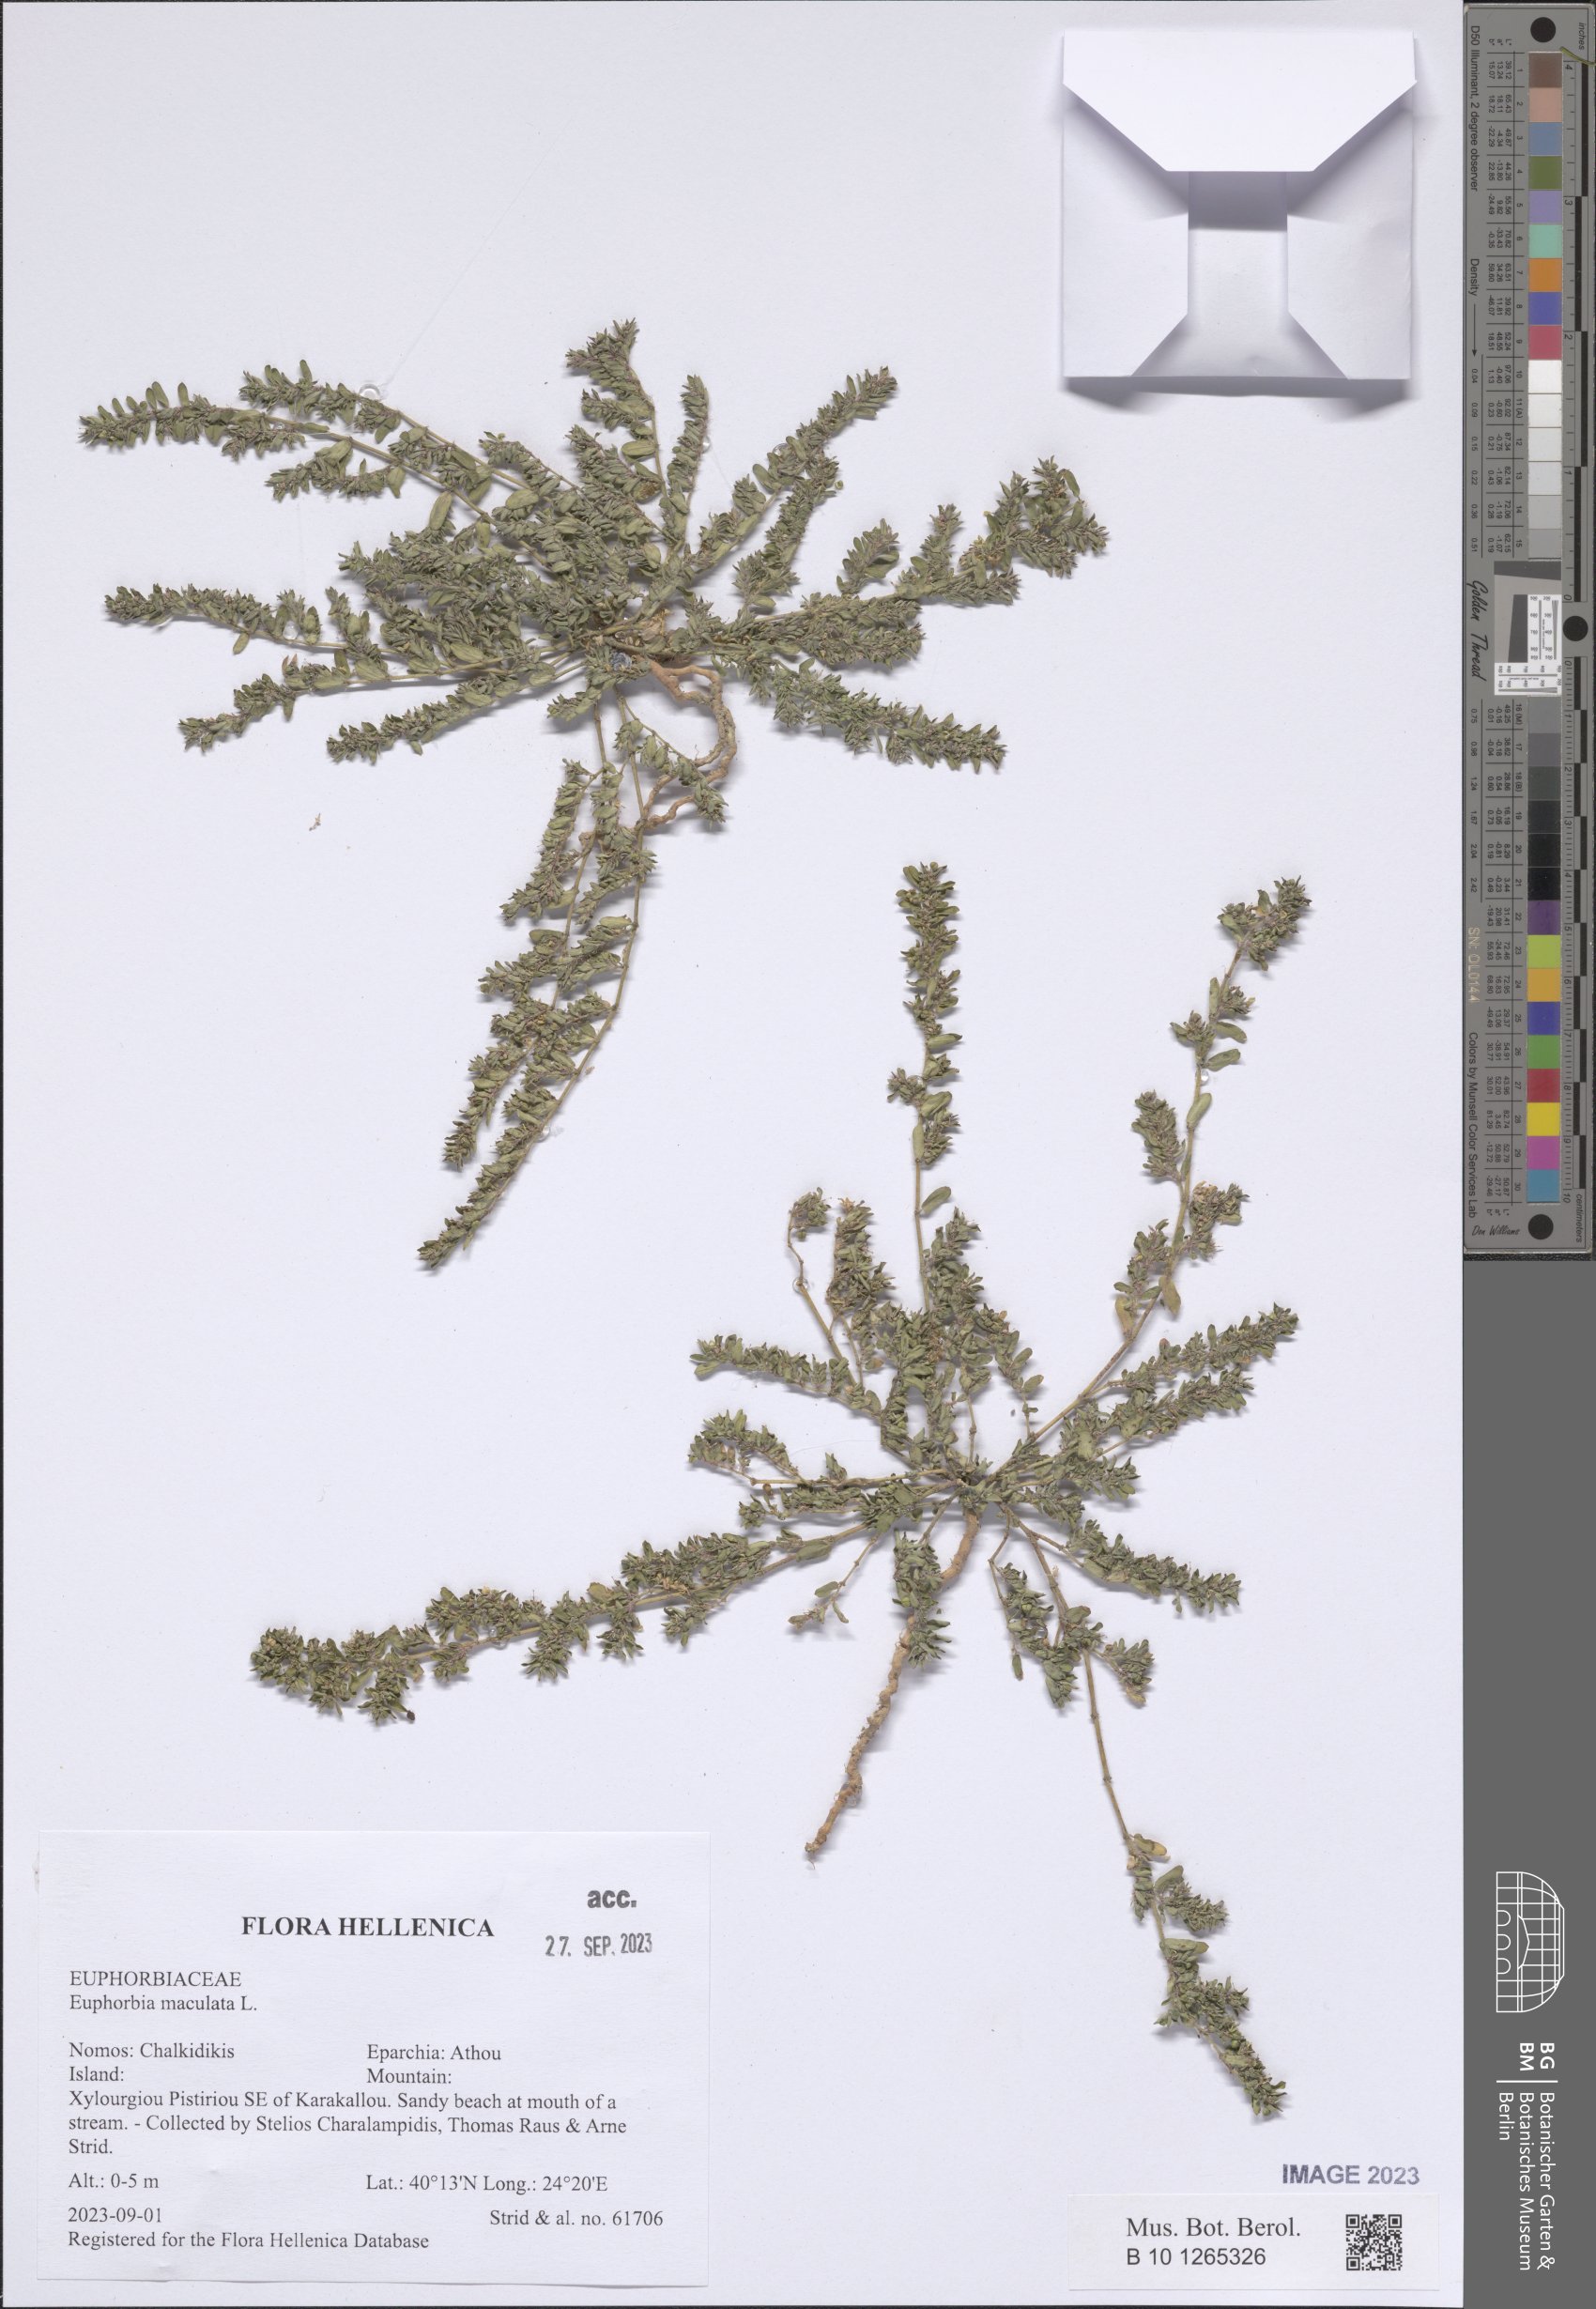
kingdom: Plantae
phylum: Tracheophyta
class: Magnoliopsida
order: Malpighiales
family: Euphorbiaceae
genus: Euphorbia
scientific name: Euphorbia maculata
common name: Spotted spurge
